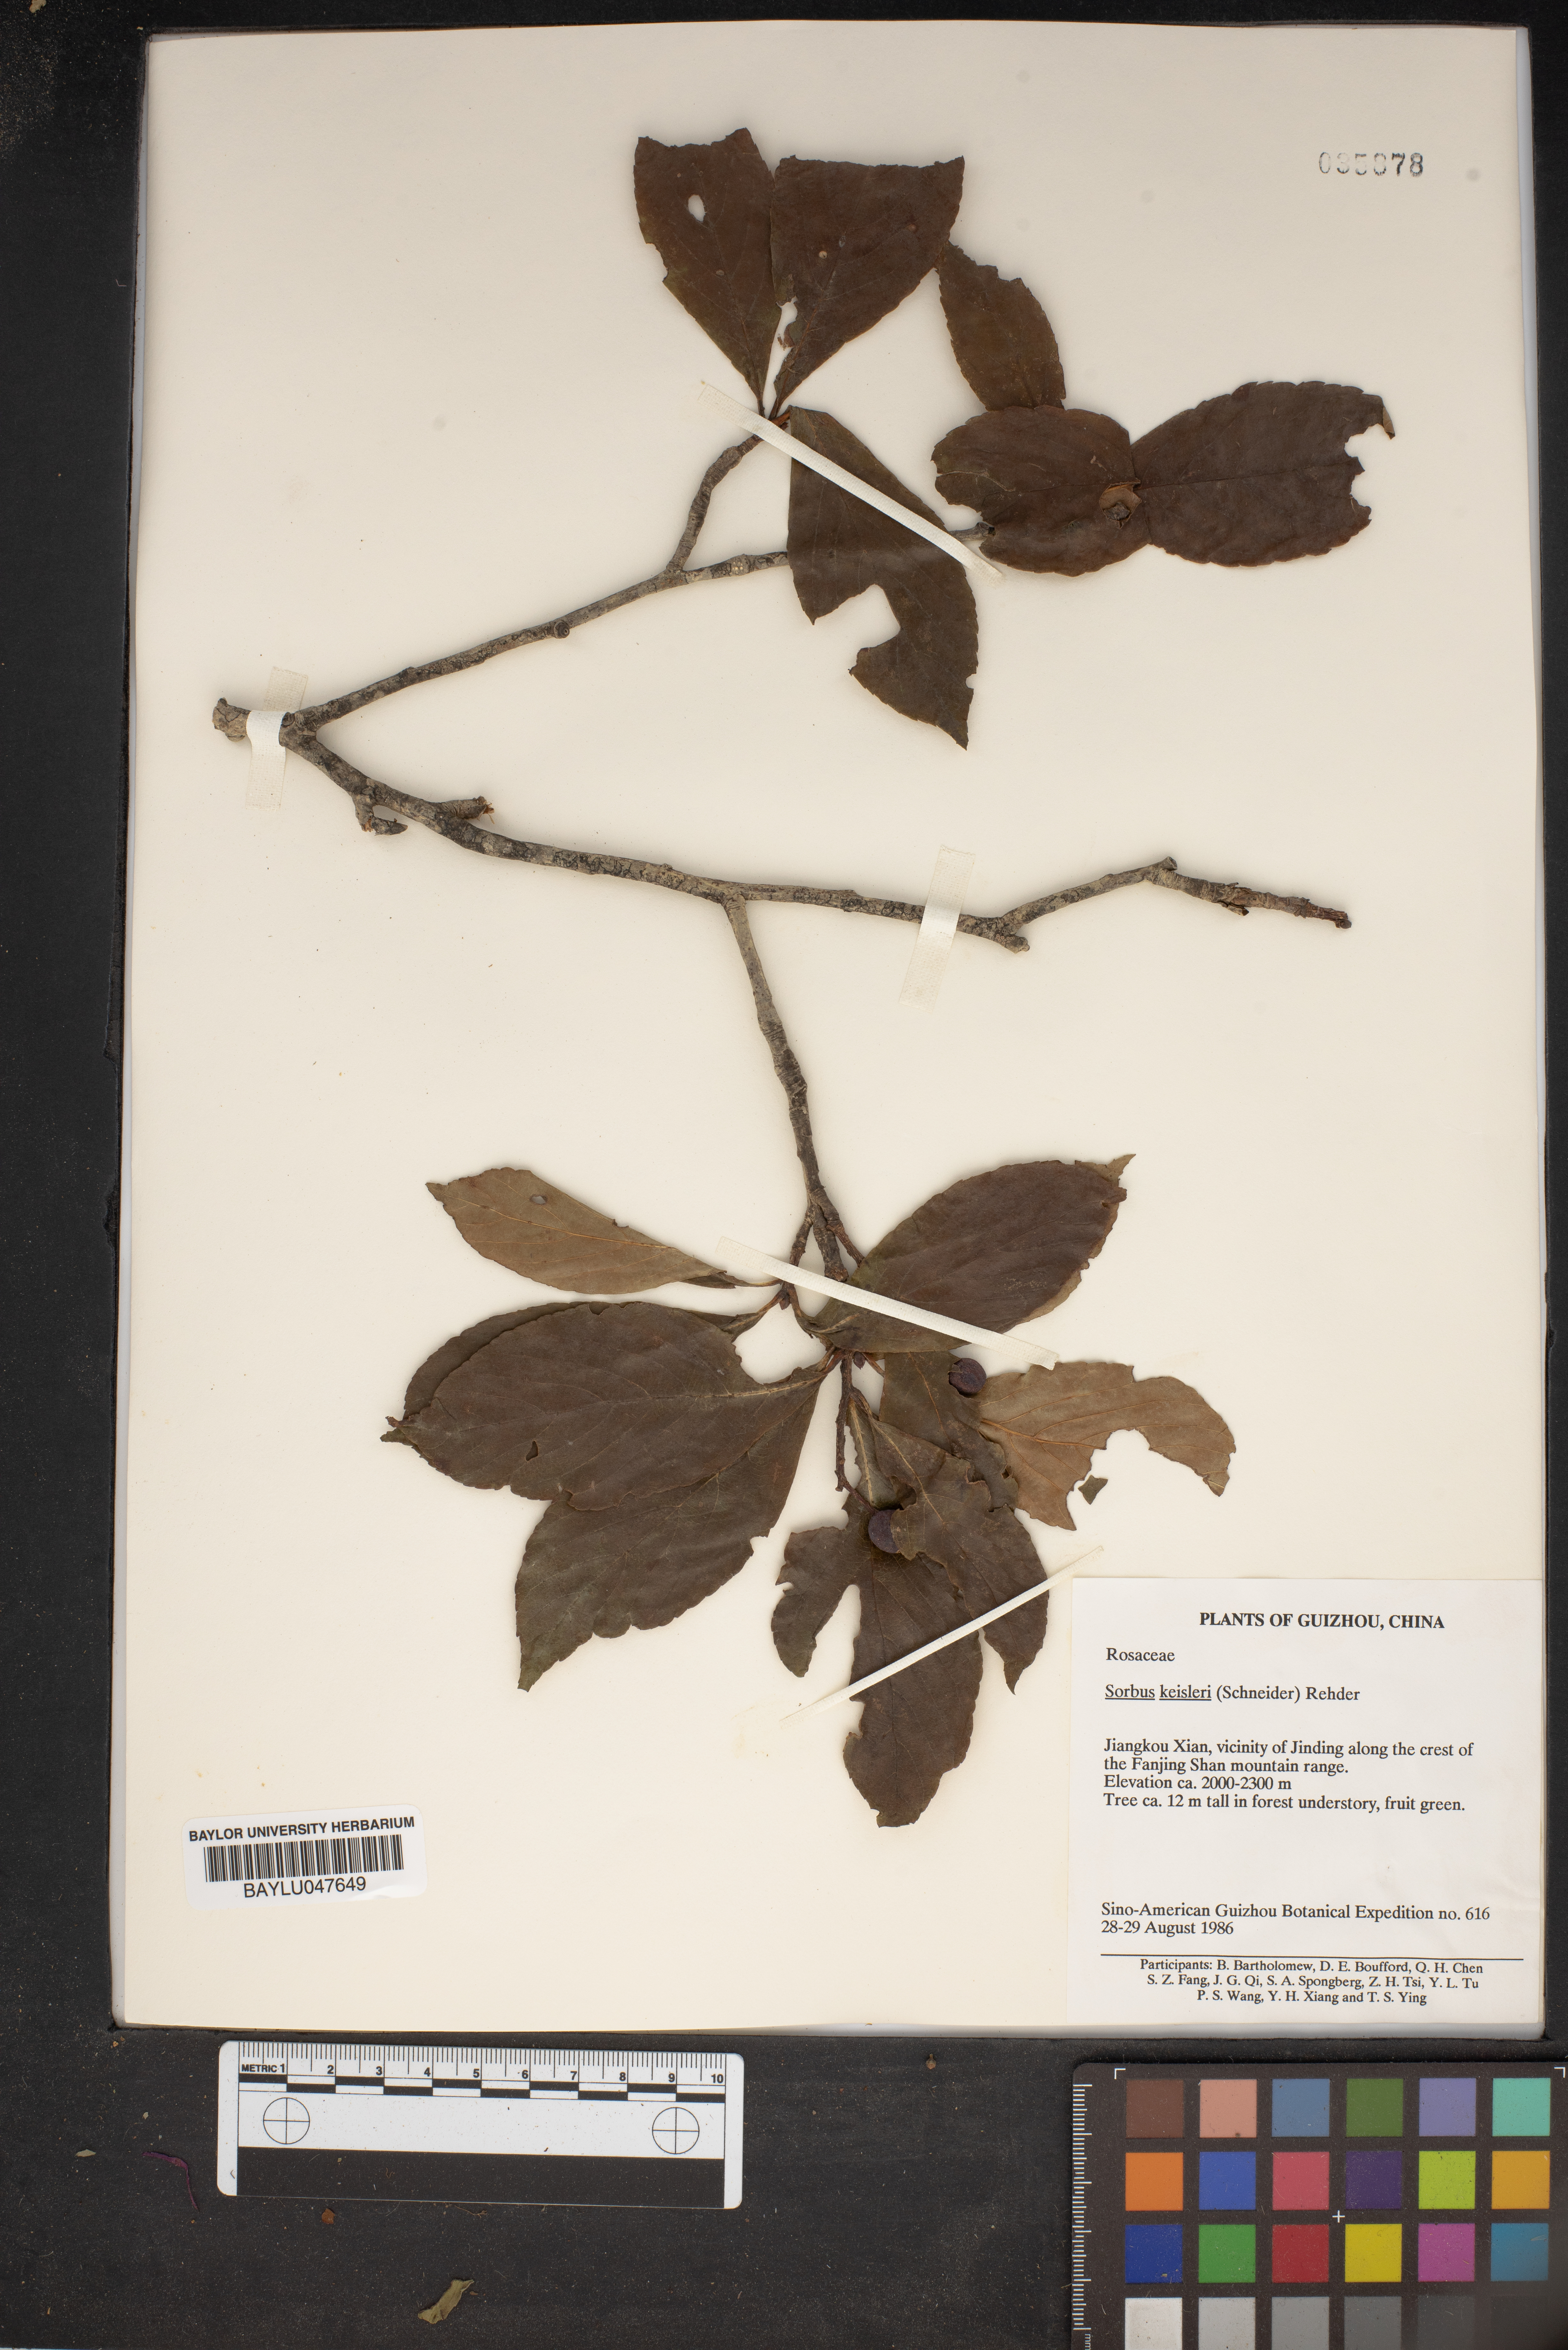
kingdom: Plantae
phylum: Tracheophyta
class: Magnoliopsida
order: Rosales
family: Rosaceae
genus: Sorbus
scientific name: Sorbus decaisneana
